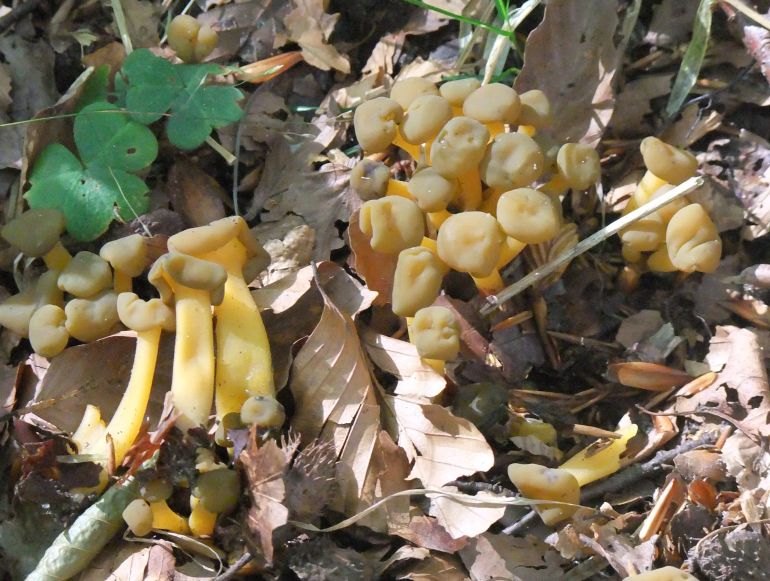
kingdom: Fungi
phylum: Ascomycota
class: Leotiomycetes
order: Leotiales
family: Leotiaceae
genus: Leotia
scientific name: Leotia lubrica
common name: ravsvamp
